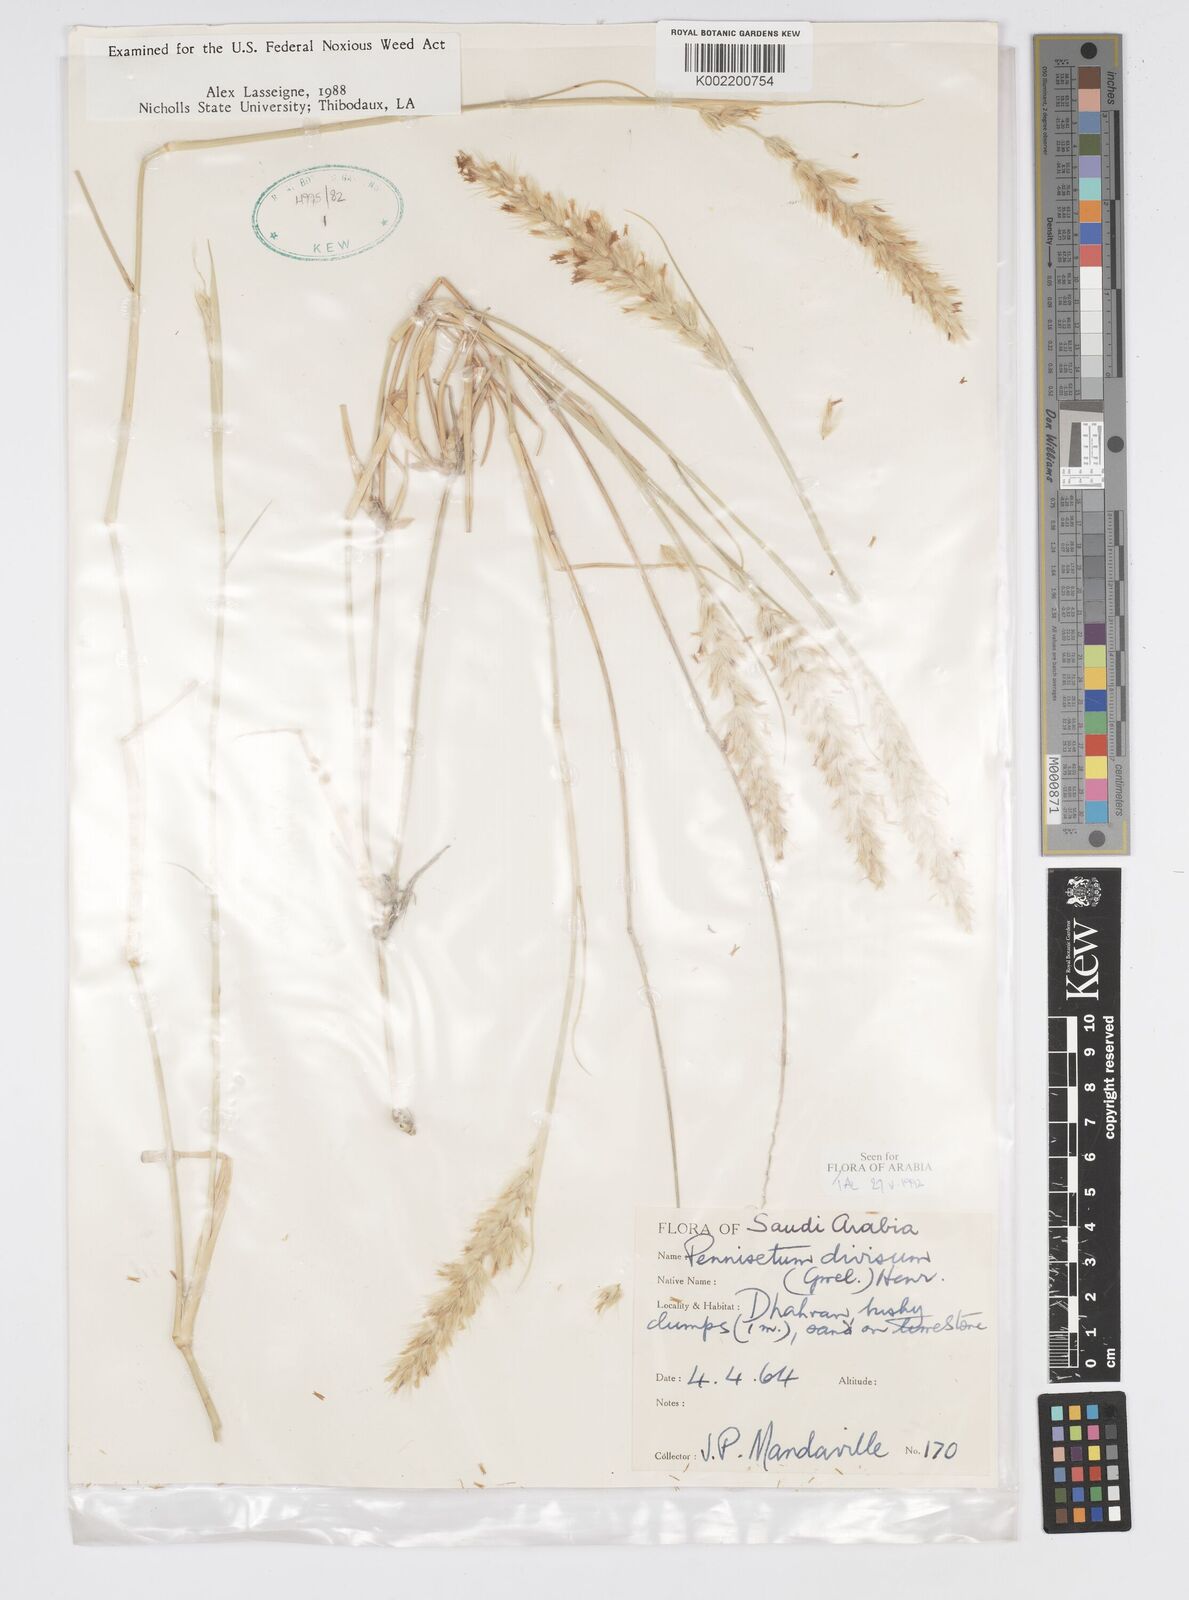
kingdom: Plantae
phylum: Tracheophyta
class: Liliopsida
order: Poales
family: Poaceae
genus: Cenchrus
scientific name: Cenchrus divisus
